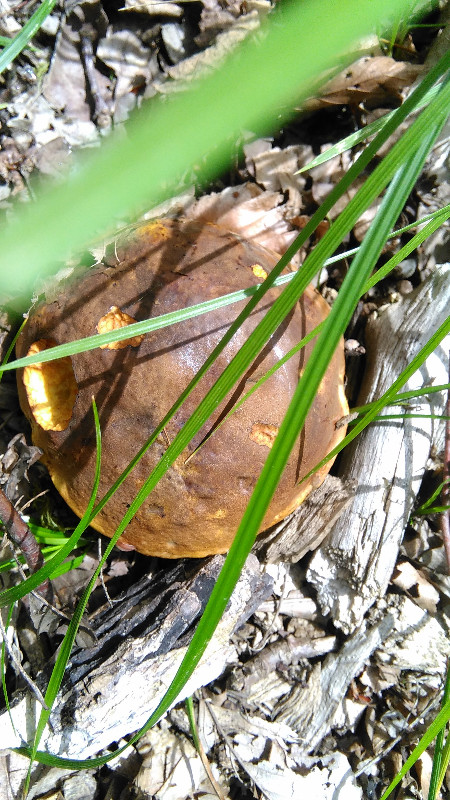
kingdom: Fungi
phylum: Basidiomycota
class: Agaricomycetes
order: Boletales
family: Boletaceae
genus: Neoboletus
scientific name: Neoboletus erythropus
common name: punktstokket indigorørhat
